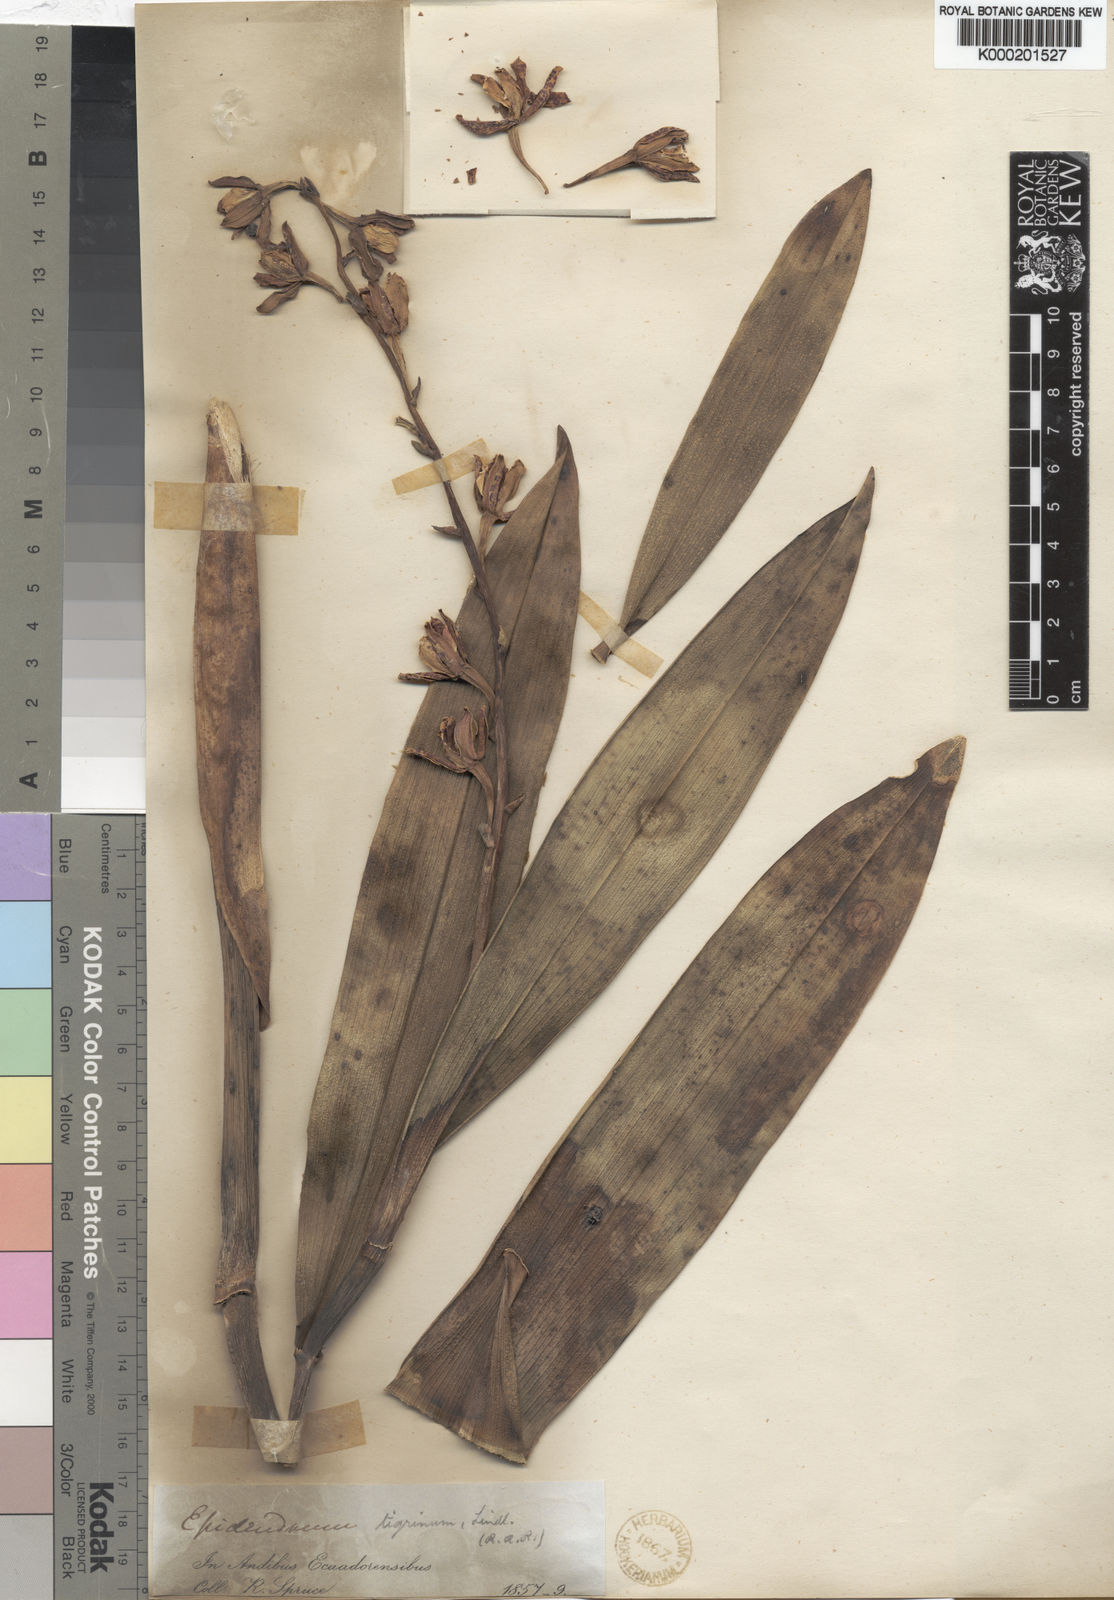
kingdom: Plantae
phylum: Tracheophyta
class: Liliopsida
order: Asparagales
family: Orchidaceae
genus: Encyclia
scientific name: Encyclia
